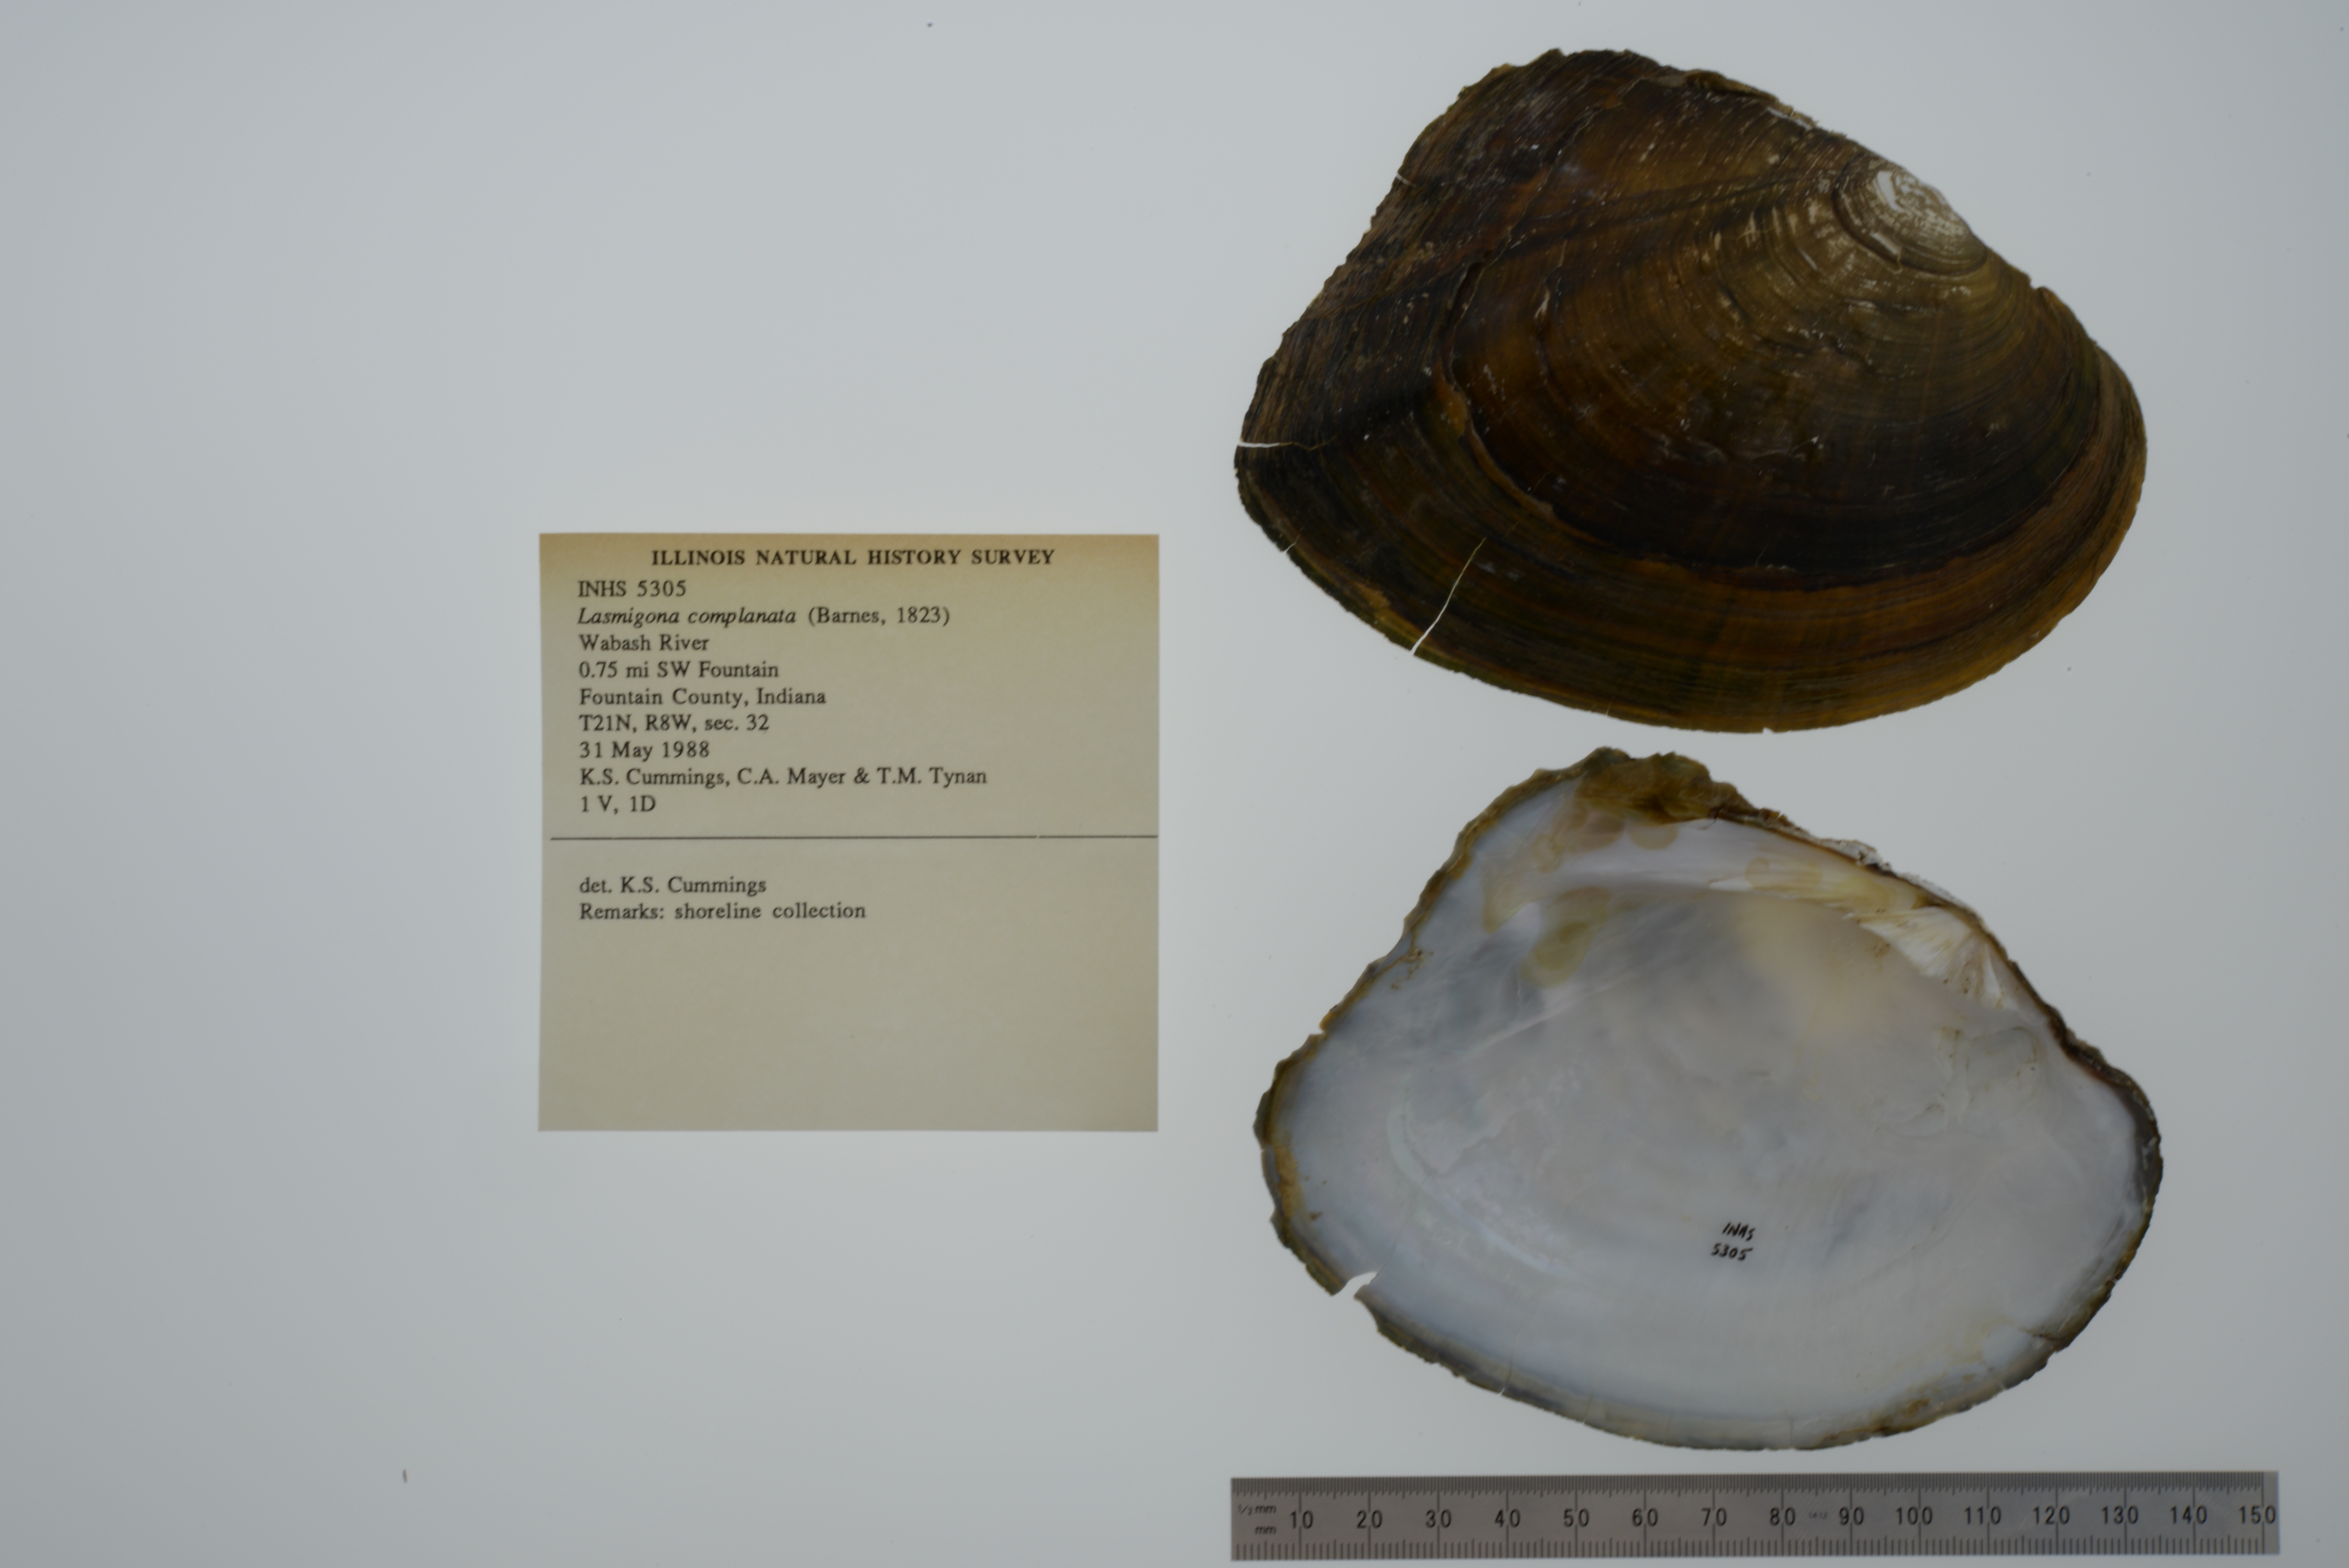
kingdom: Animalia
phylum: Mollusca
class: Bivalvia
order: Unionida
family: Unionidae
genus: Lasmigona
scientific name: Lasmigona complanata
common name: White heelsplitter
